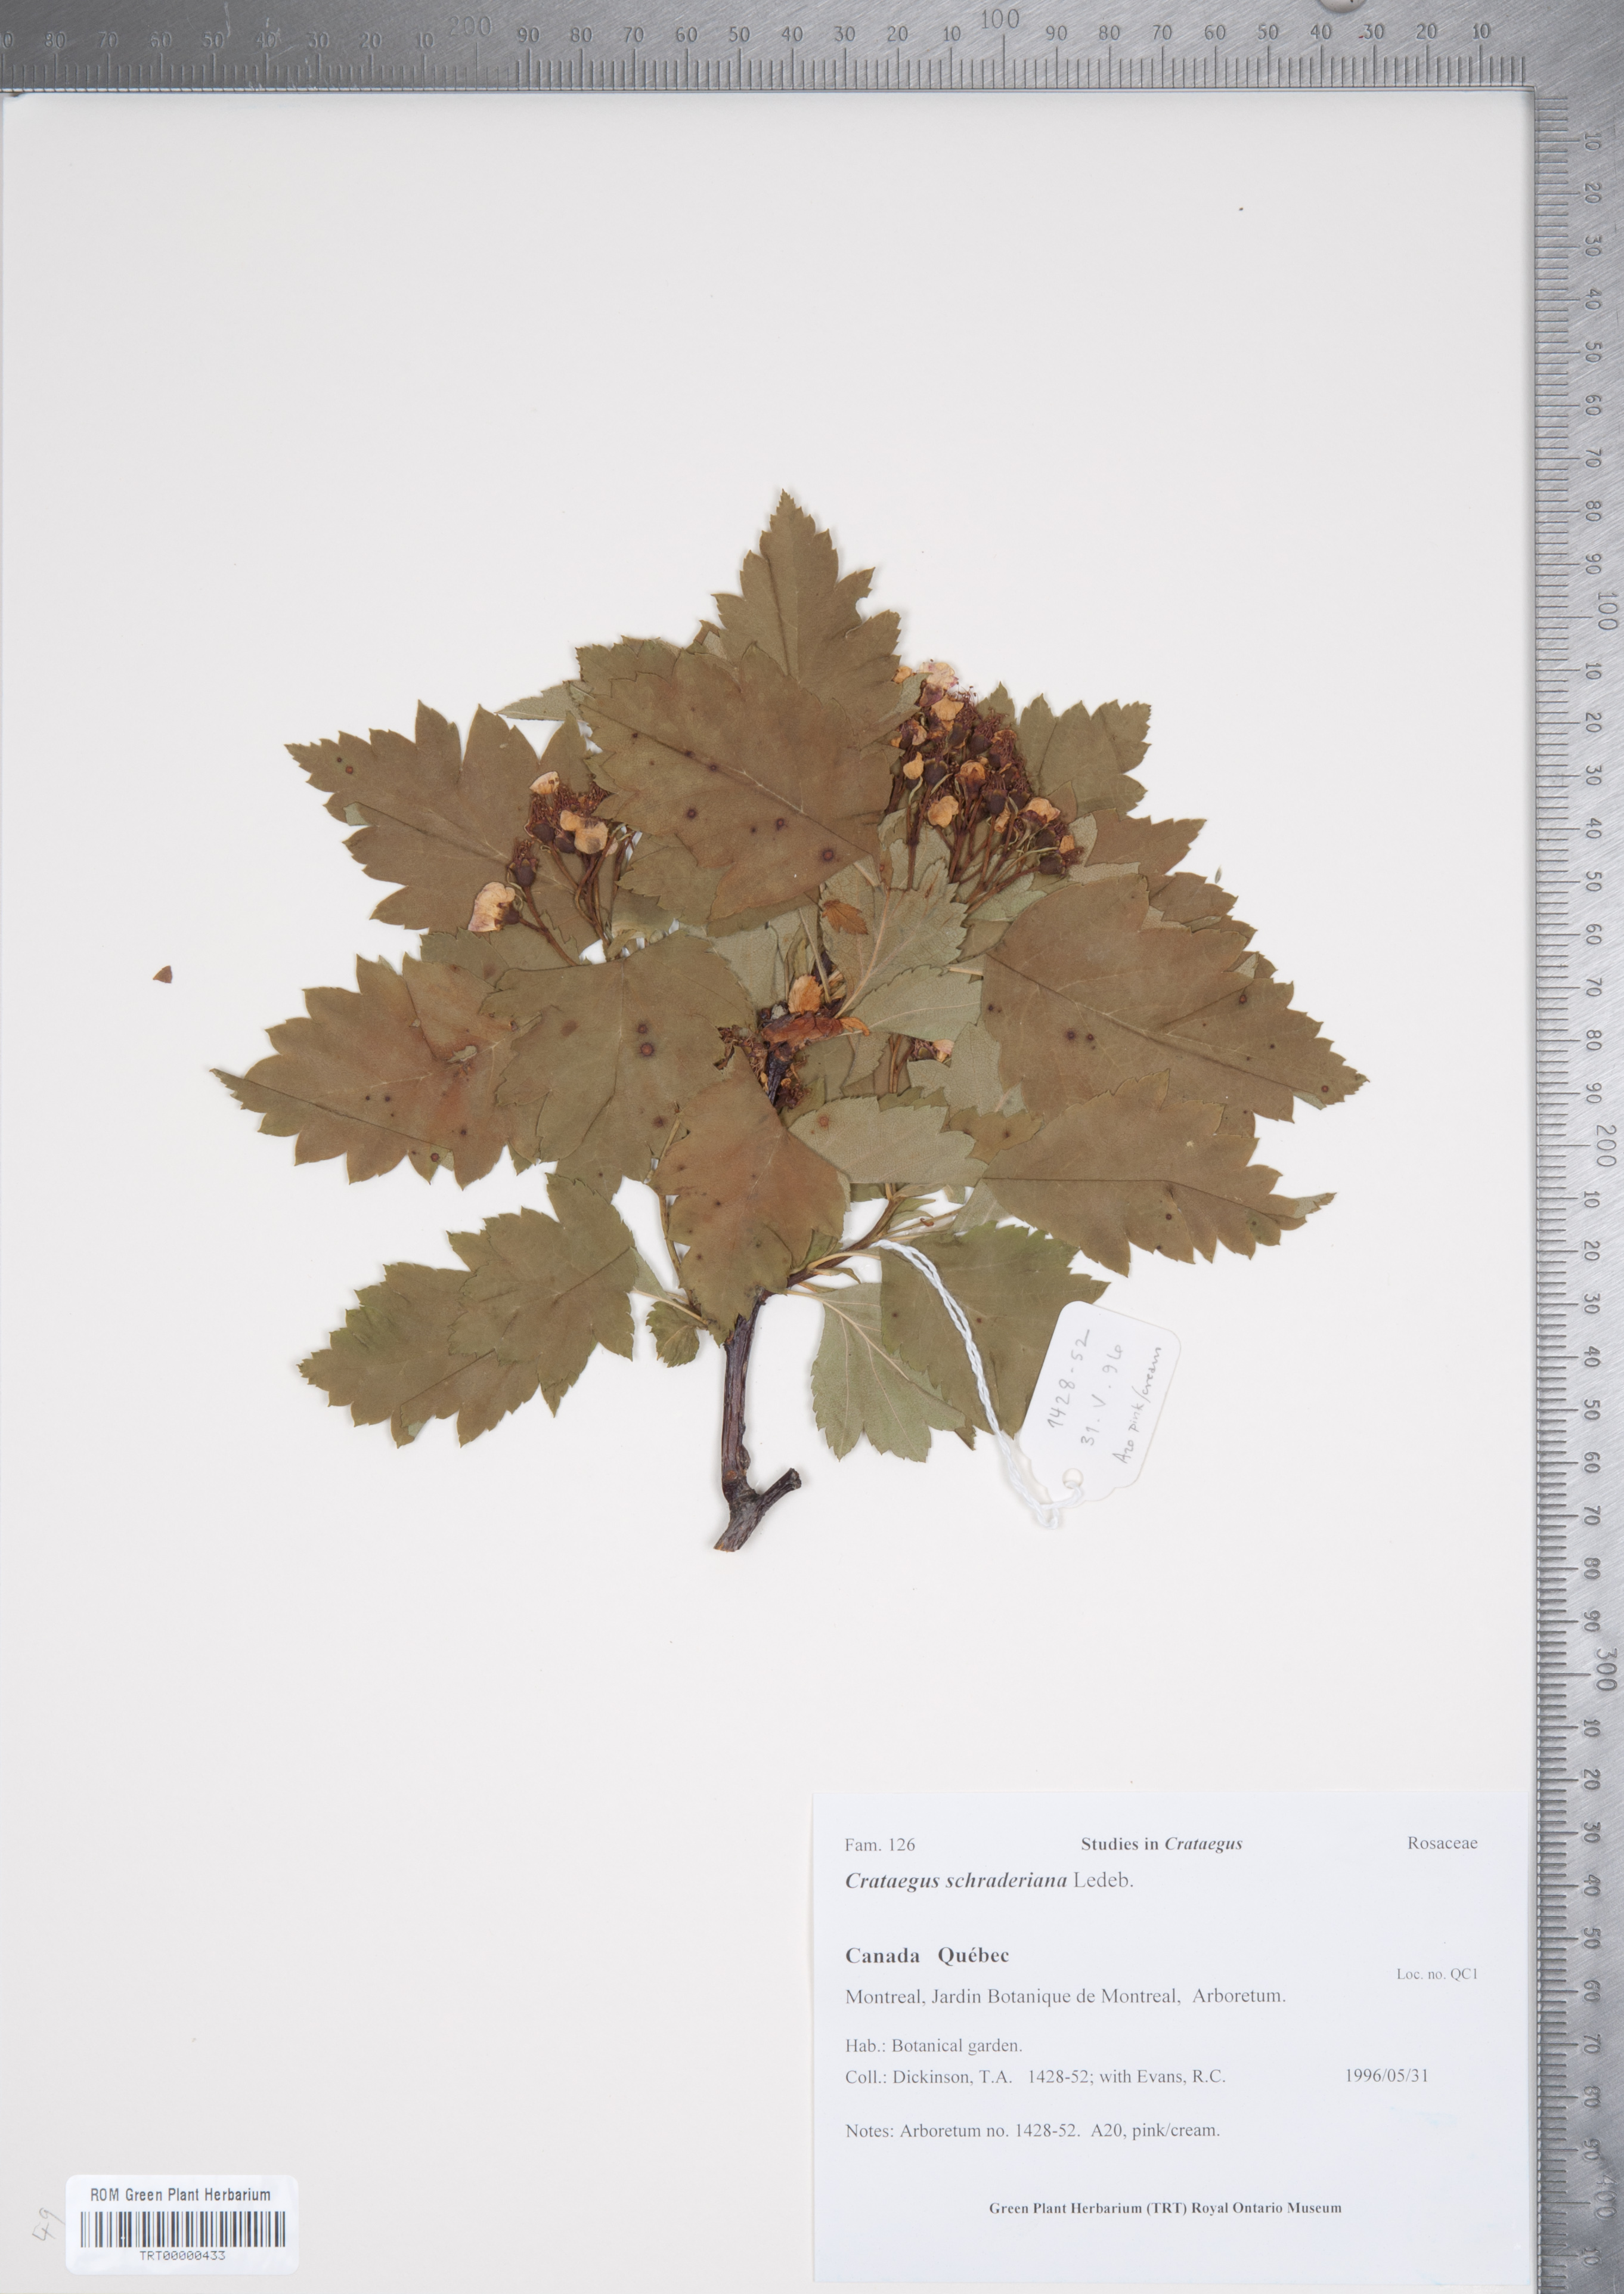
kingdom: Plantae
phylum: Tracheophyta
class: Magnoliopsida
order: Rosales
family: Rosaceae
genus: Crataegus
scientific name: Crataegus chlorosarca
